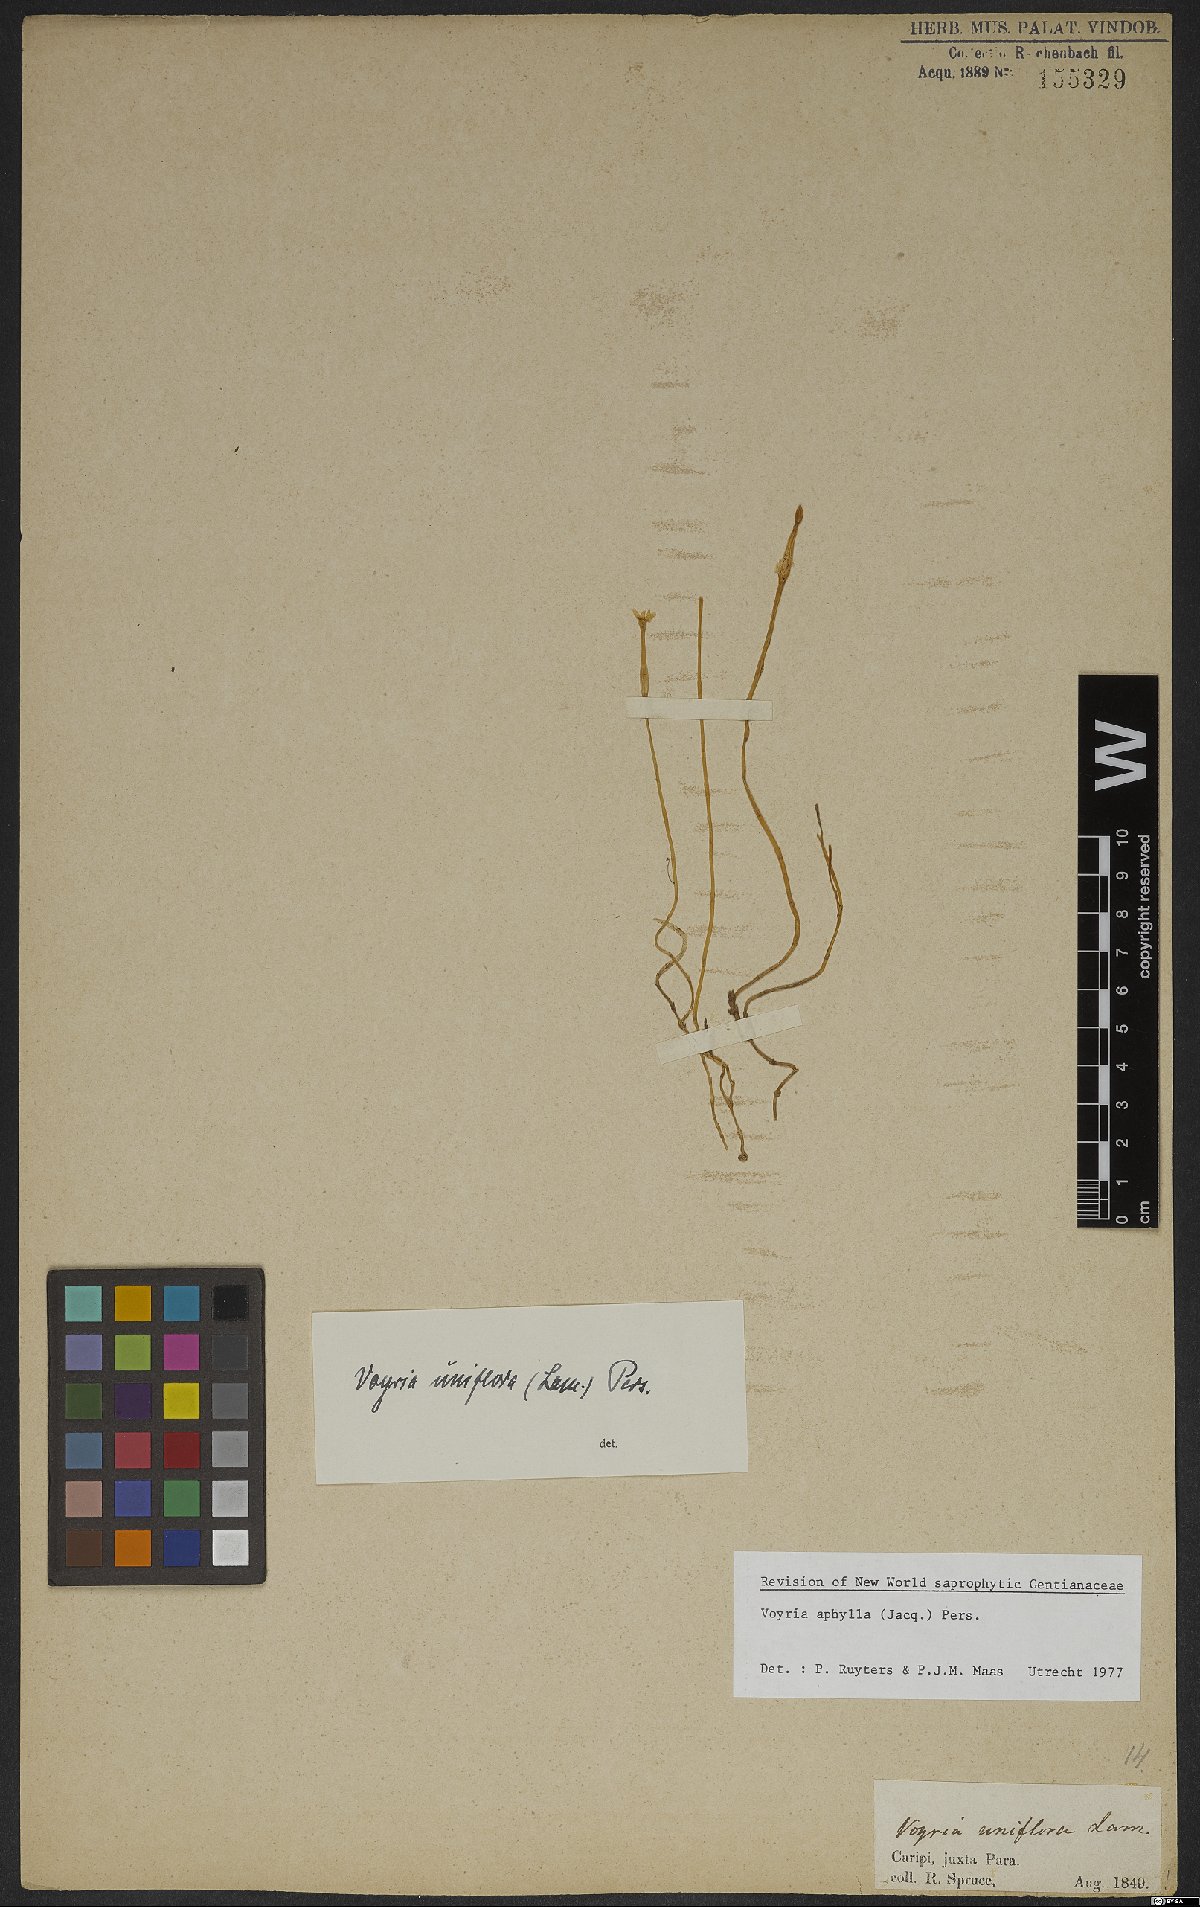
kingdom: Plantae
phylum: Tracheophyta
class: Magnoliopsida
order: Gentianales
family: Gentianaceae
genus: Voyria
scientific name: Voyria aphylla
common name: Leafless ghost plant
